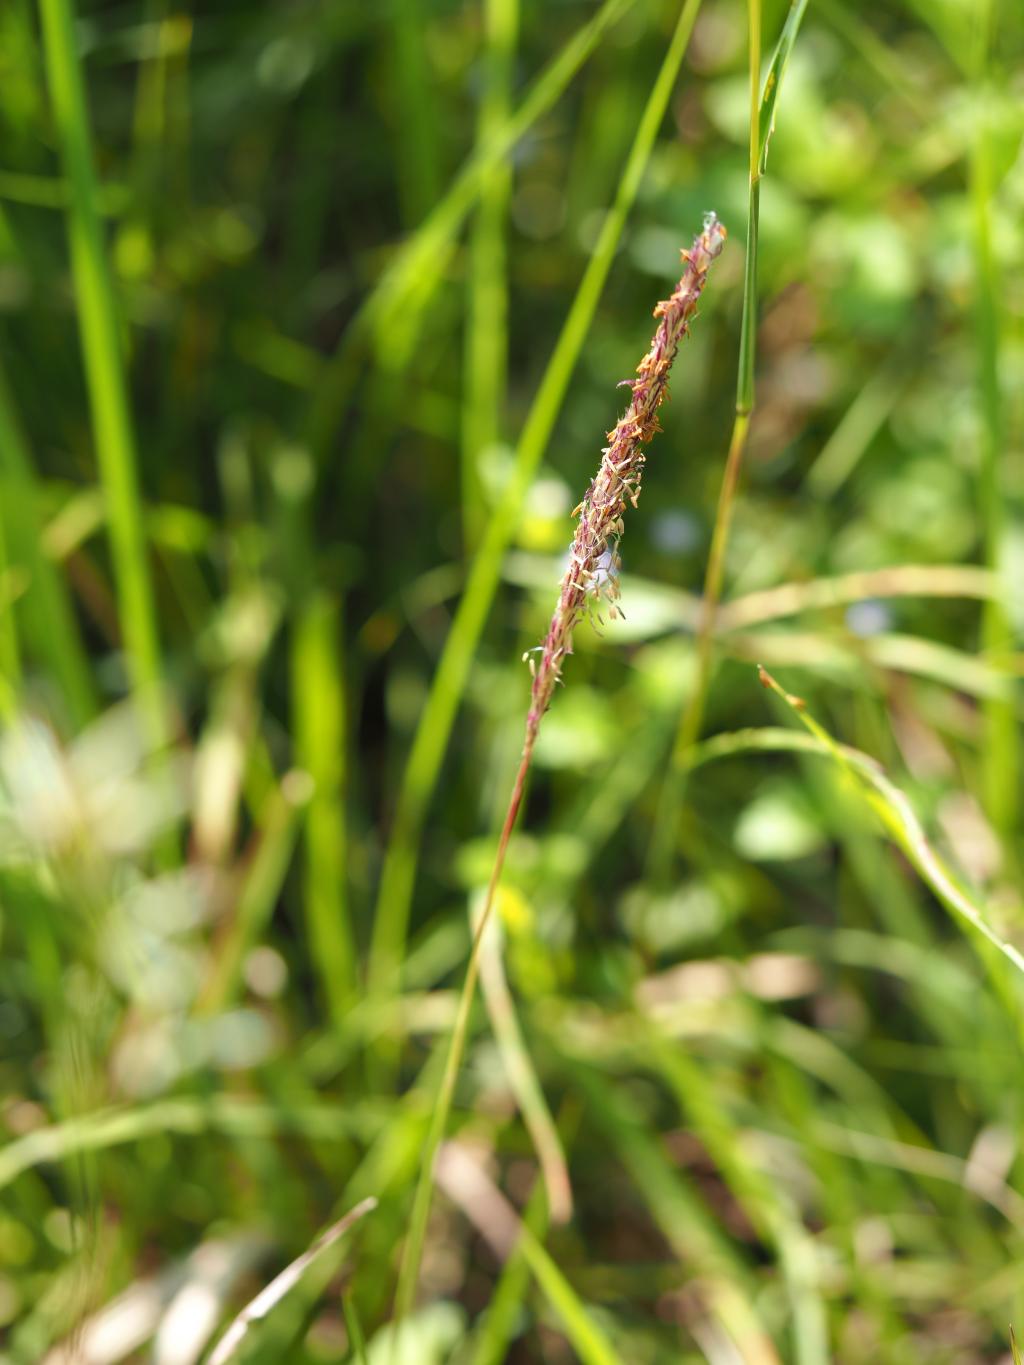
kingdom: Plantae
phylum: Tracheophyta
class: Liliopsida
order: Poales
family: Poaceae
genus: Imperata
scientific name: Imperata cylindrica
